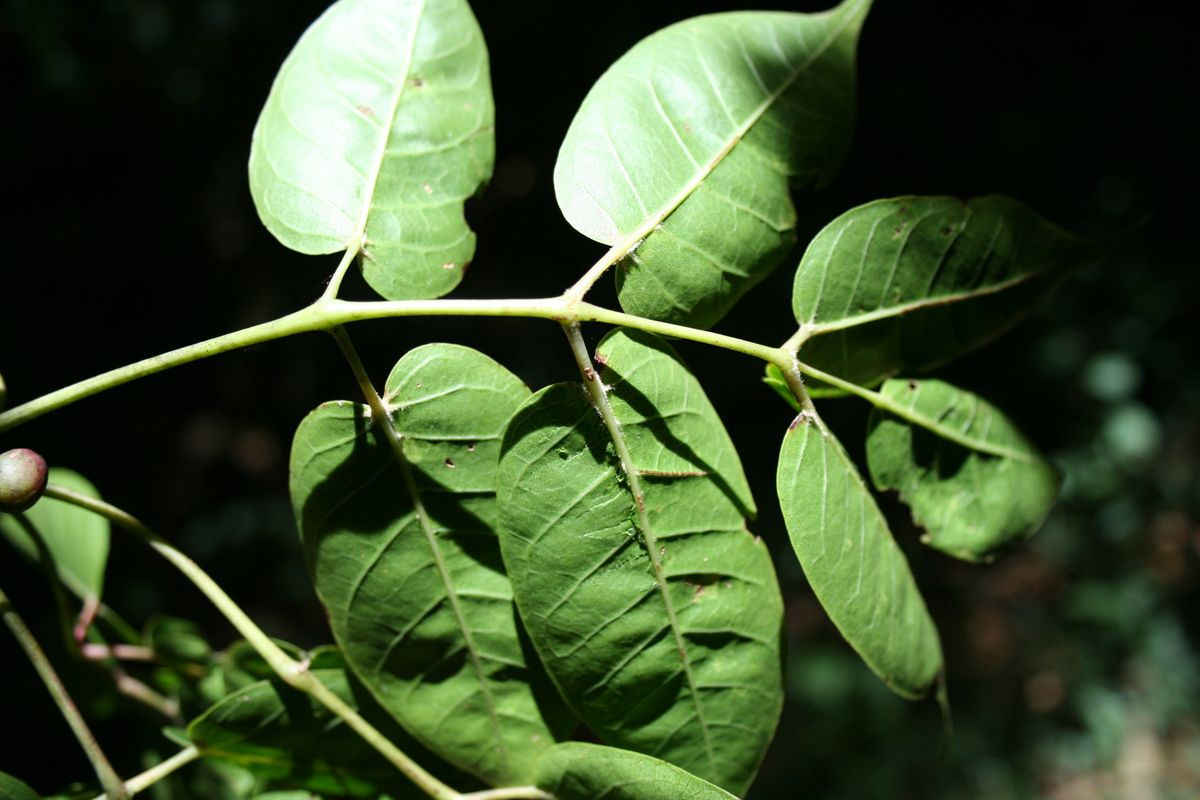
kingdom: Plantae
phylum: Tracheophyta
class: Magnoliopsida
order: Sapindales
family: Burseraceae
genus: Bursera
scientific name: Bursera simaruba
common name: Turpentine tree
